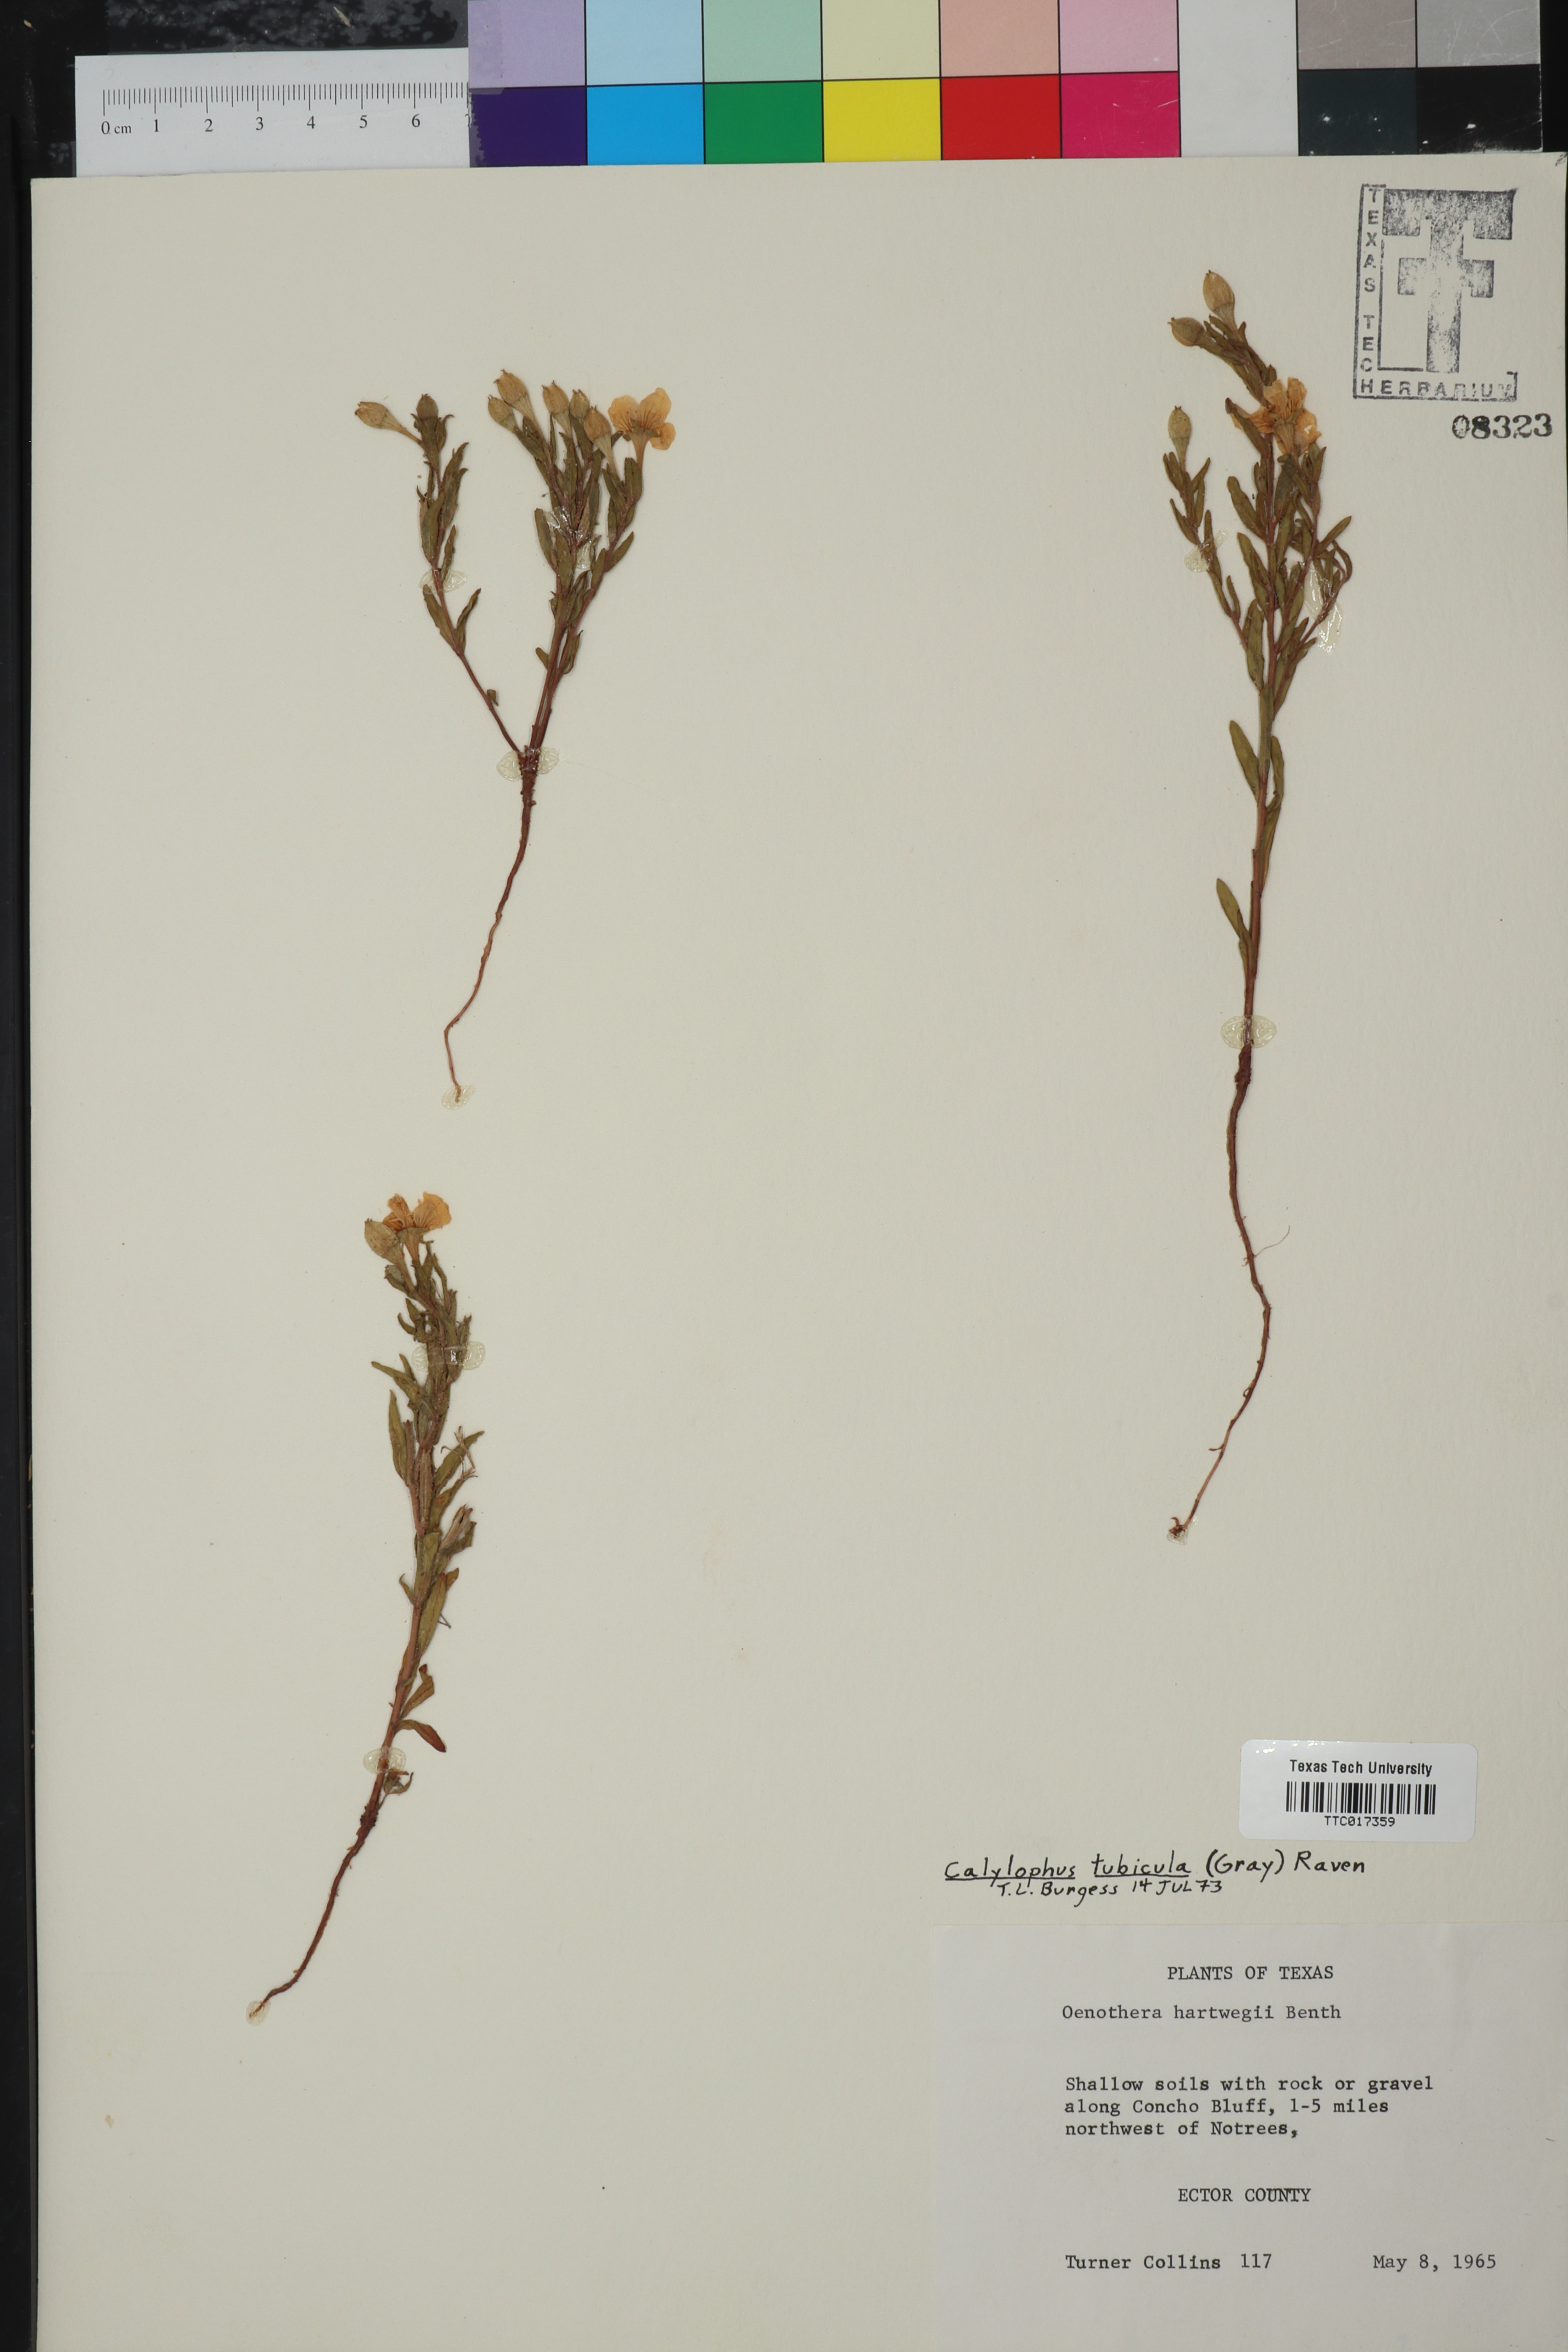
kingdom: Plantae
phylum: Tracheophyta
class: Magnoliopsida
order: Myrtales
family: Onagraceae
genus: Oenothera
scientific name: Oenothera tubicula
